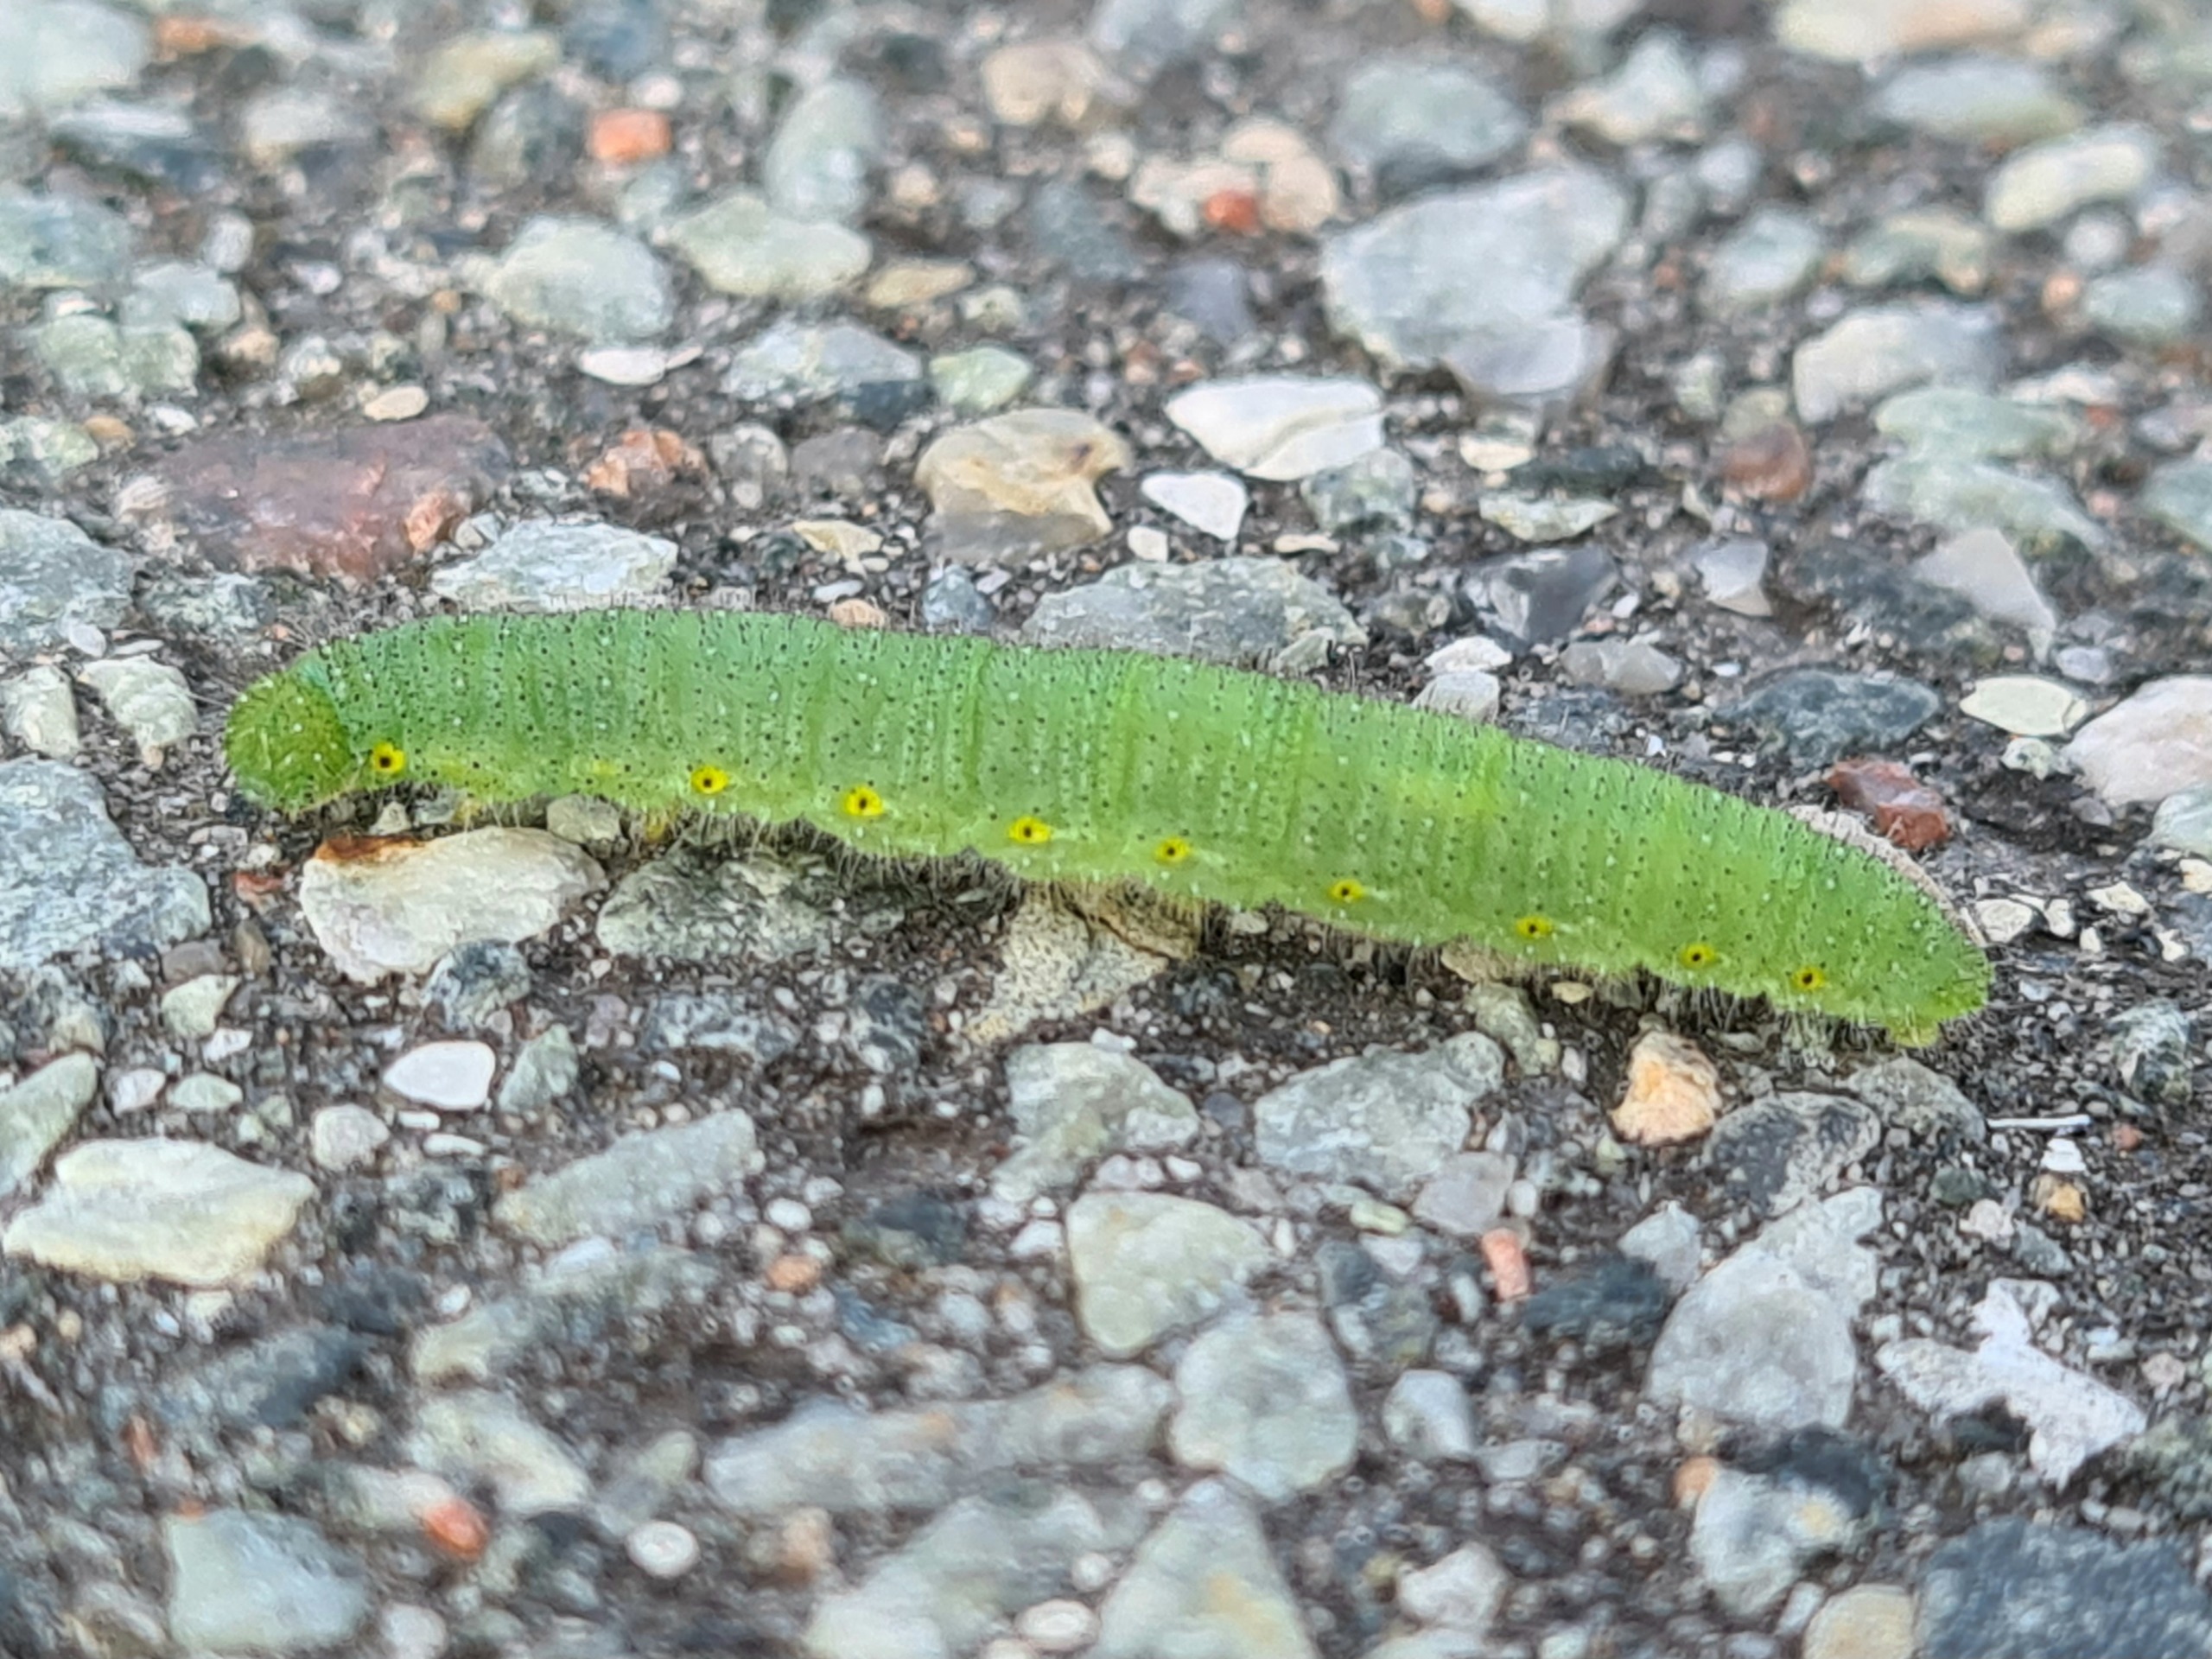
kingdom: Animalia
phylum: Arthropoda
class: Insecta
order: Lepidoptera
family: Pieridae
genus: Pieris
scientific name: Pieris rapae
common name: Lille kålsommerfugl
